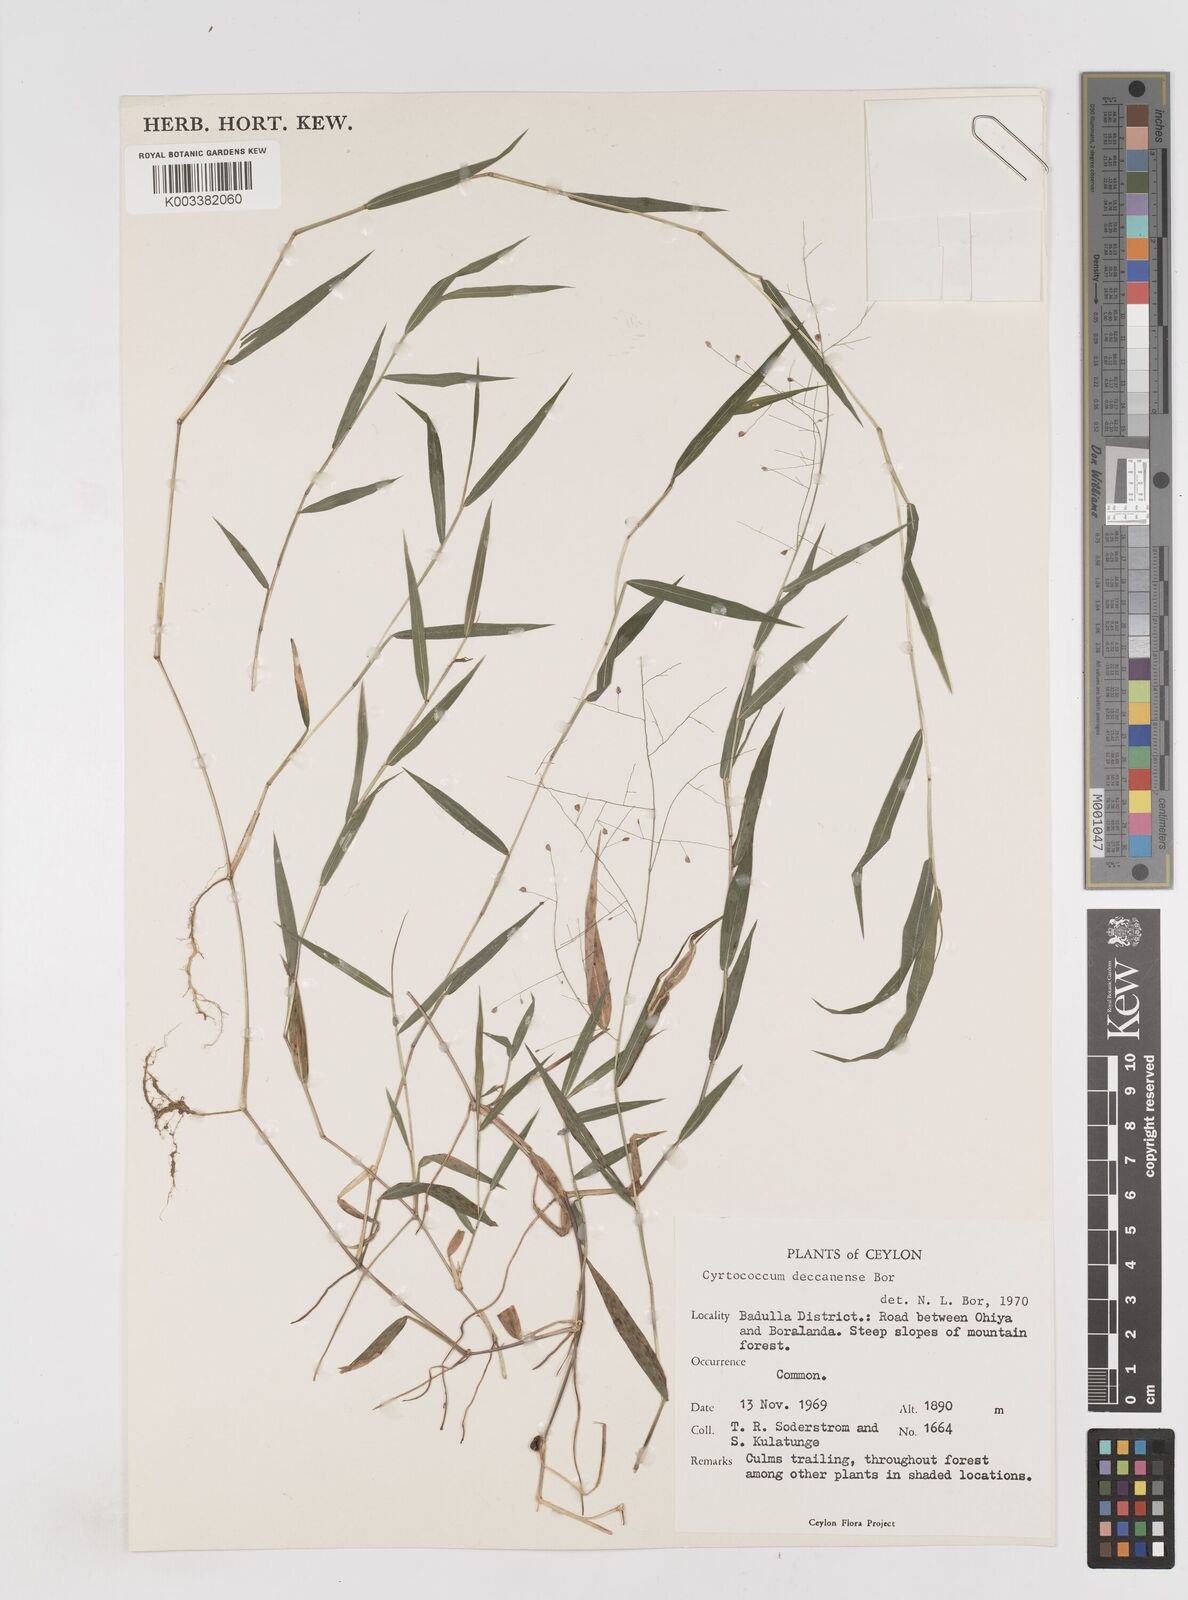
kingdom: Plantae
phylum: Tracheophyta
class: Liliopsida
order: Poales
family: Poaceae
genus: Cyrtococcum
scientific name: Cyrtococcum deccanense
